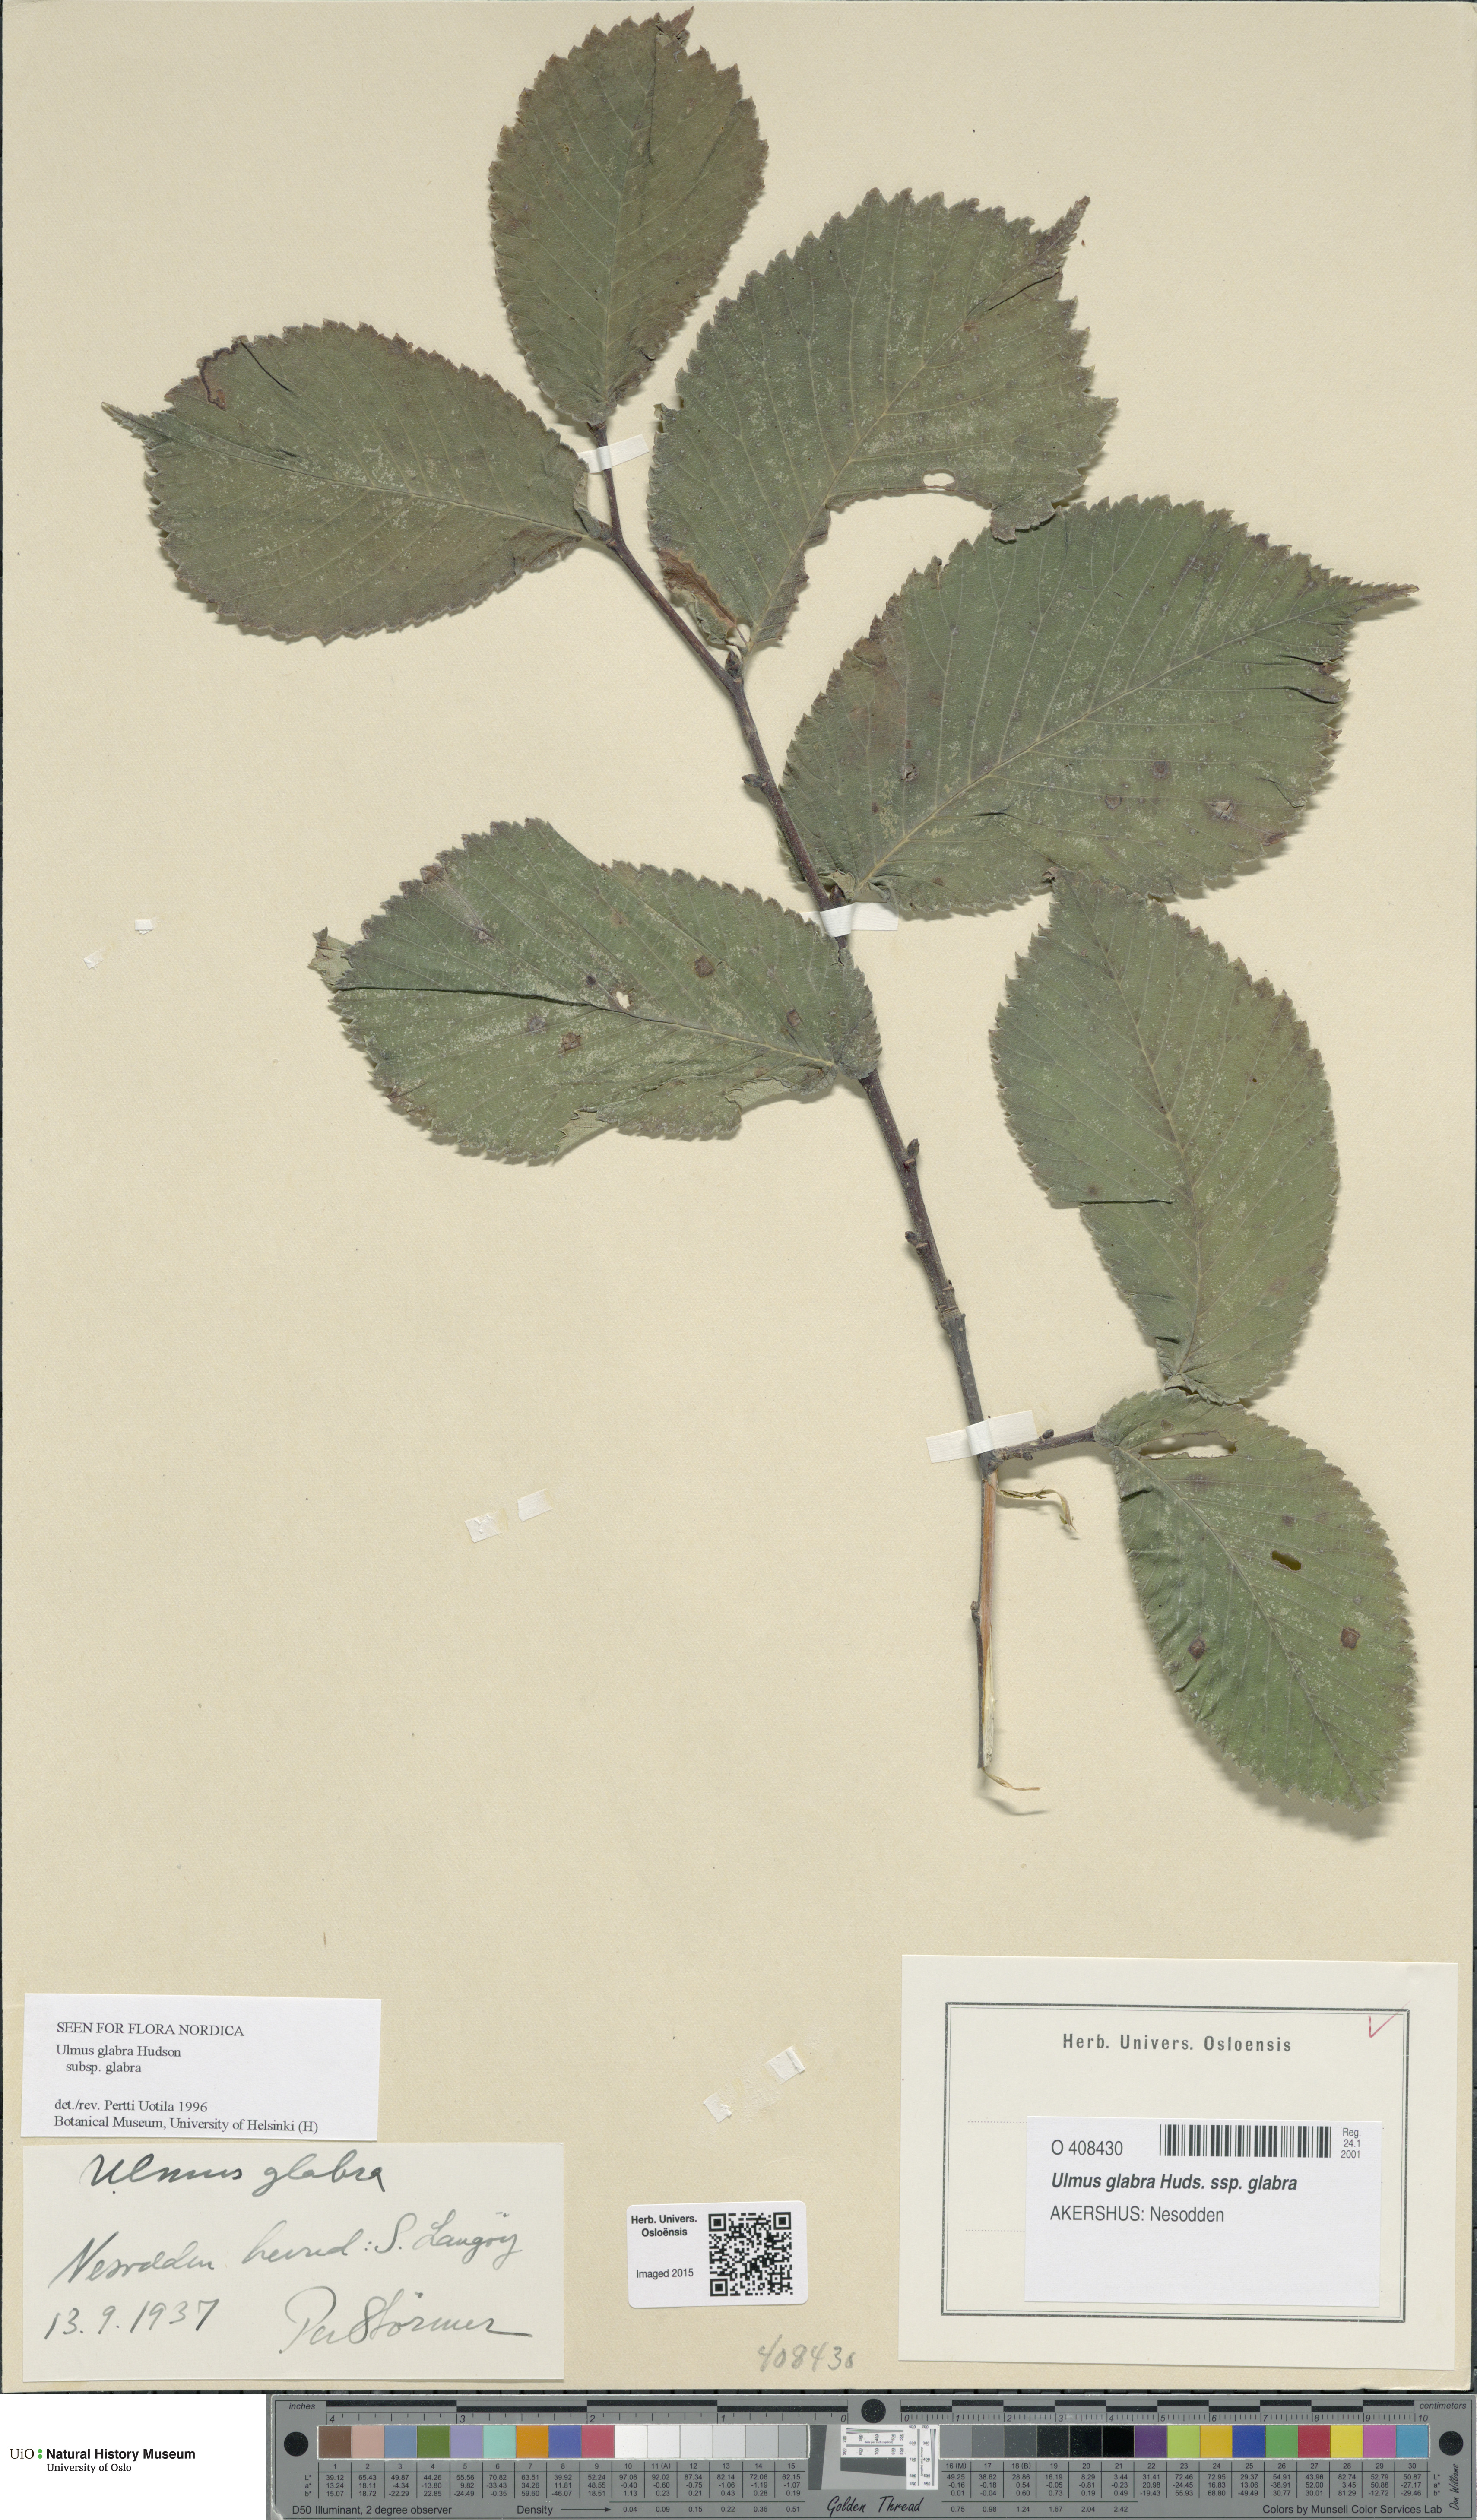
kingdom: Plantae
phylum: Tracheophyta
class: Magnoliopsida
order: Rosales
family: Ulmaceae
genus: Ulmus
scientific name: Ulmus glabra
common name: Wych elm
